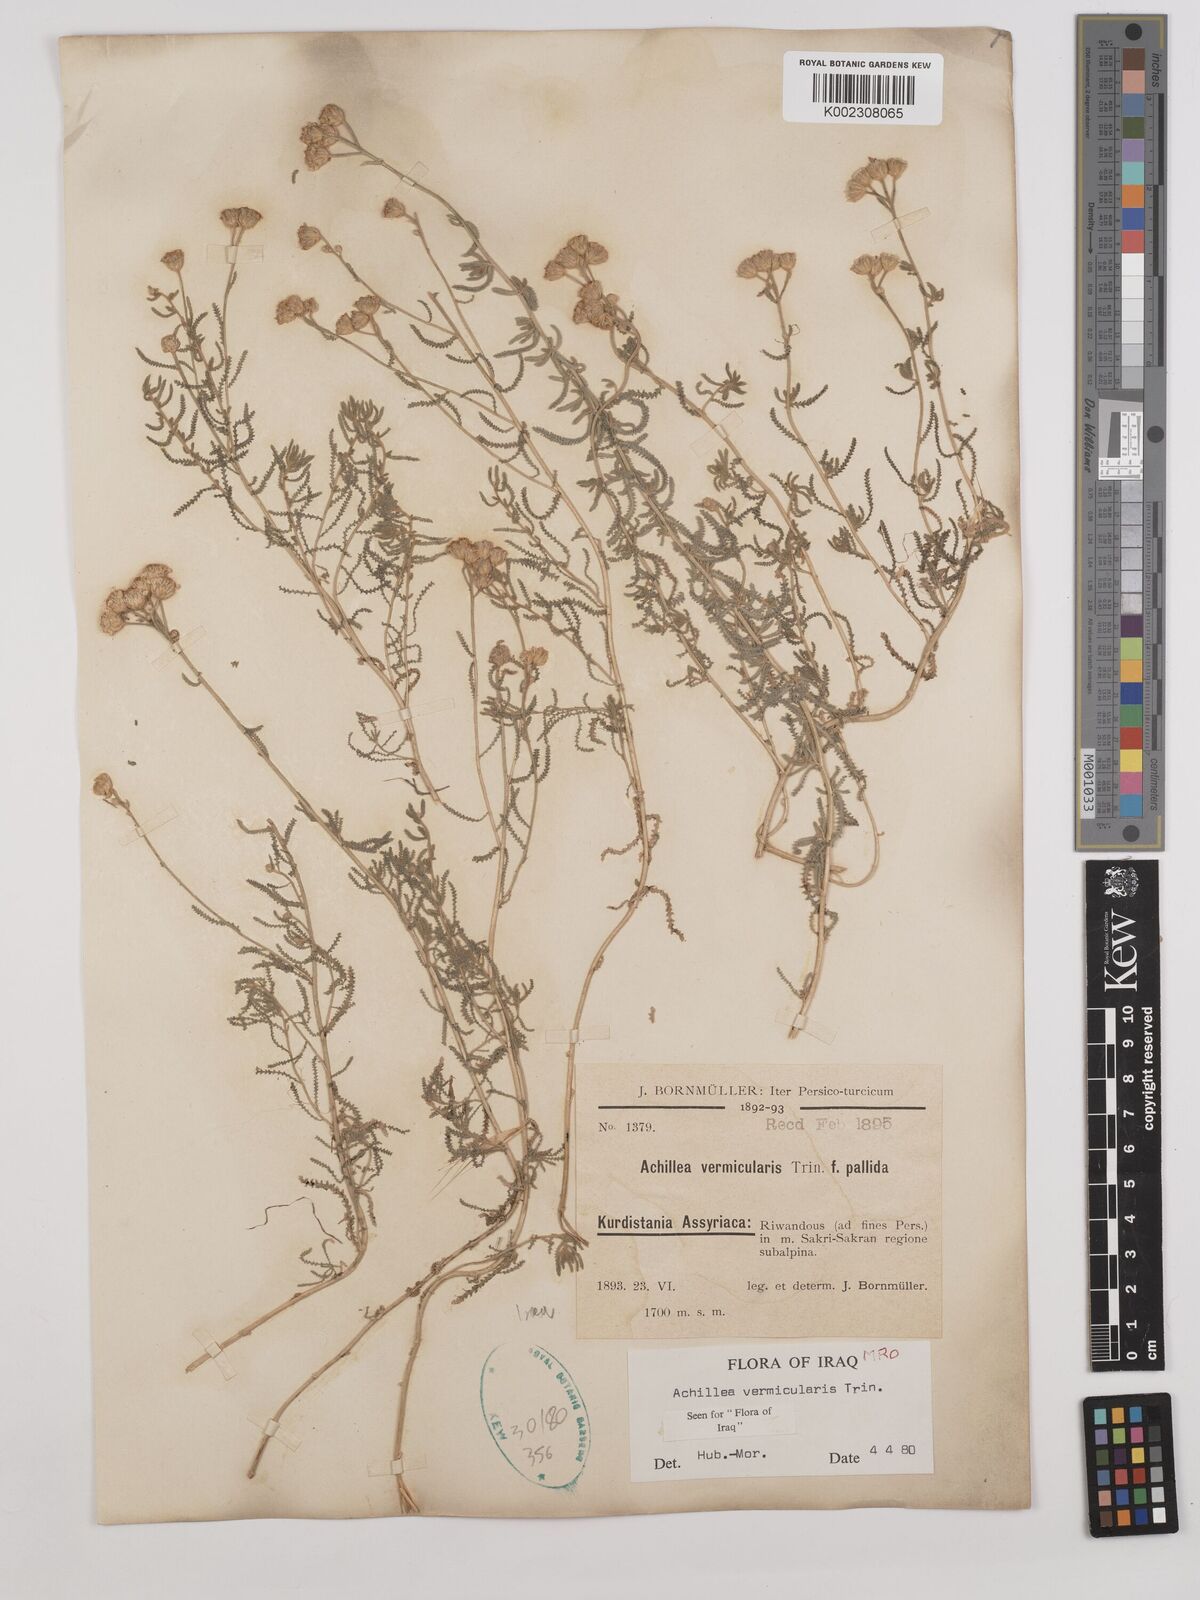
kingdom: Plantae
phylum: Tracheophyta
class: Magnoliopsida
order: Asterales
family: Asteraceae
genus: Achillea
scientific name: Achillea vermicularis
